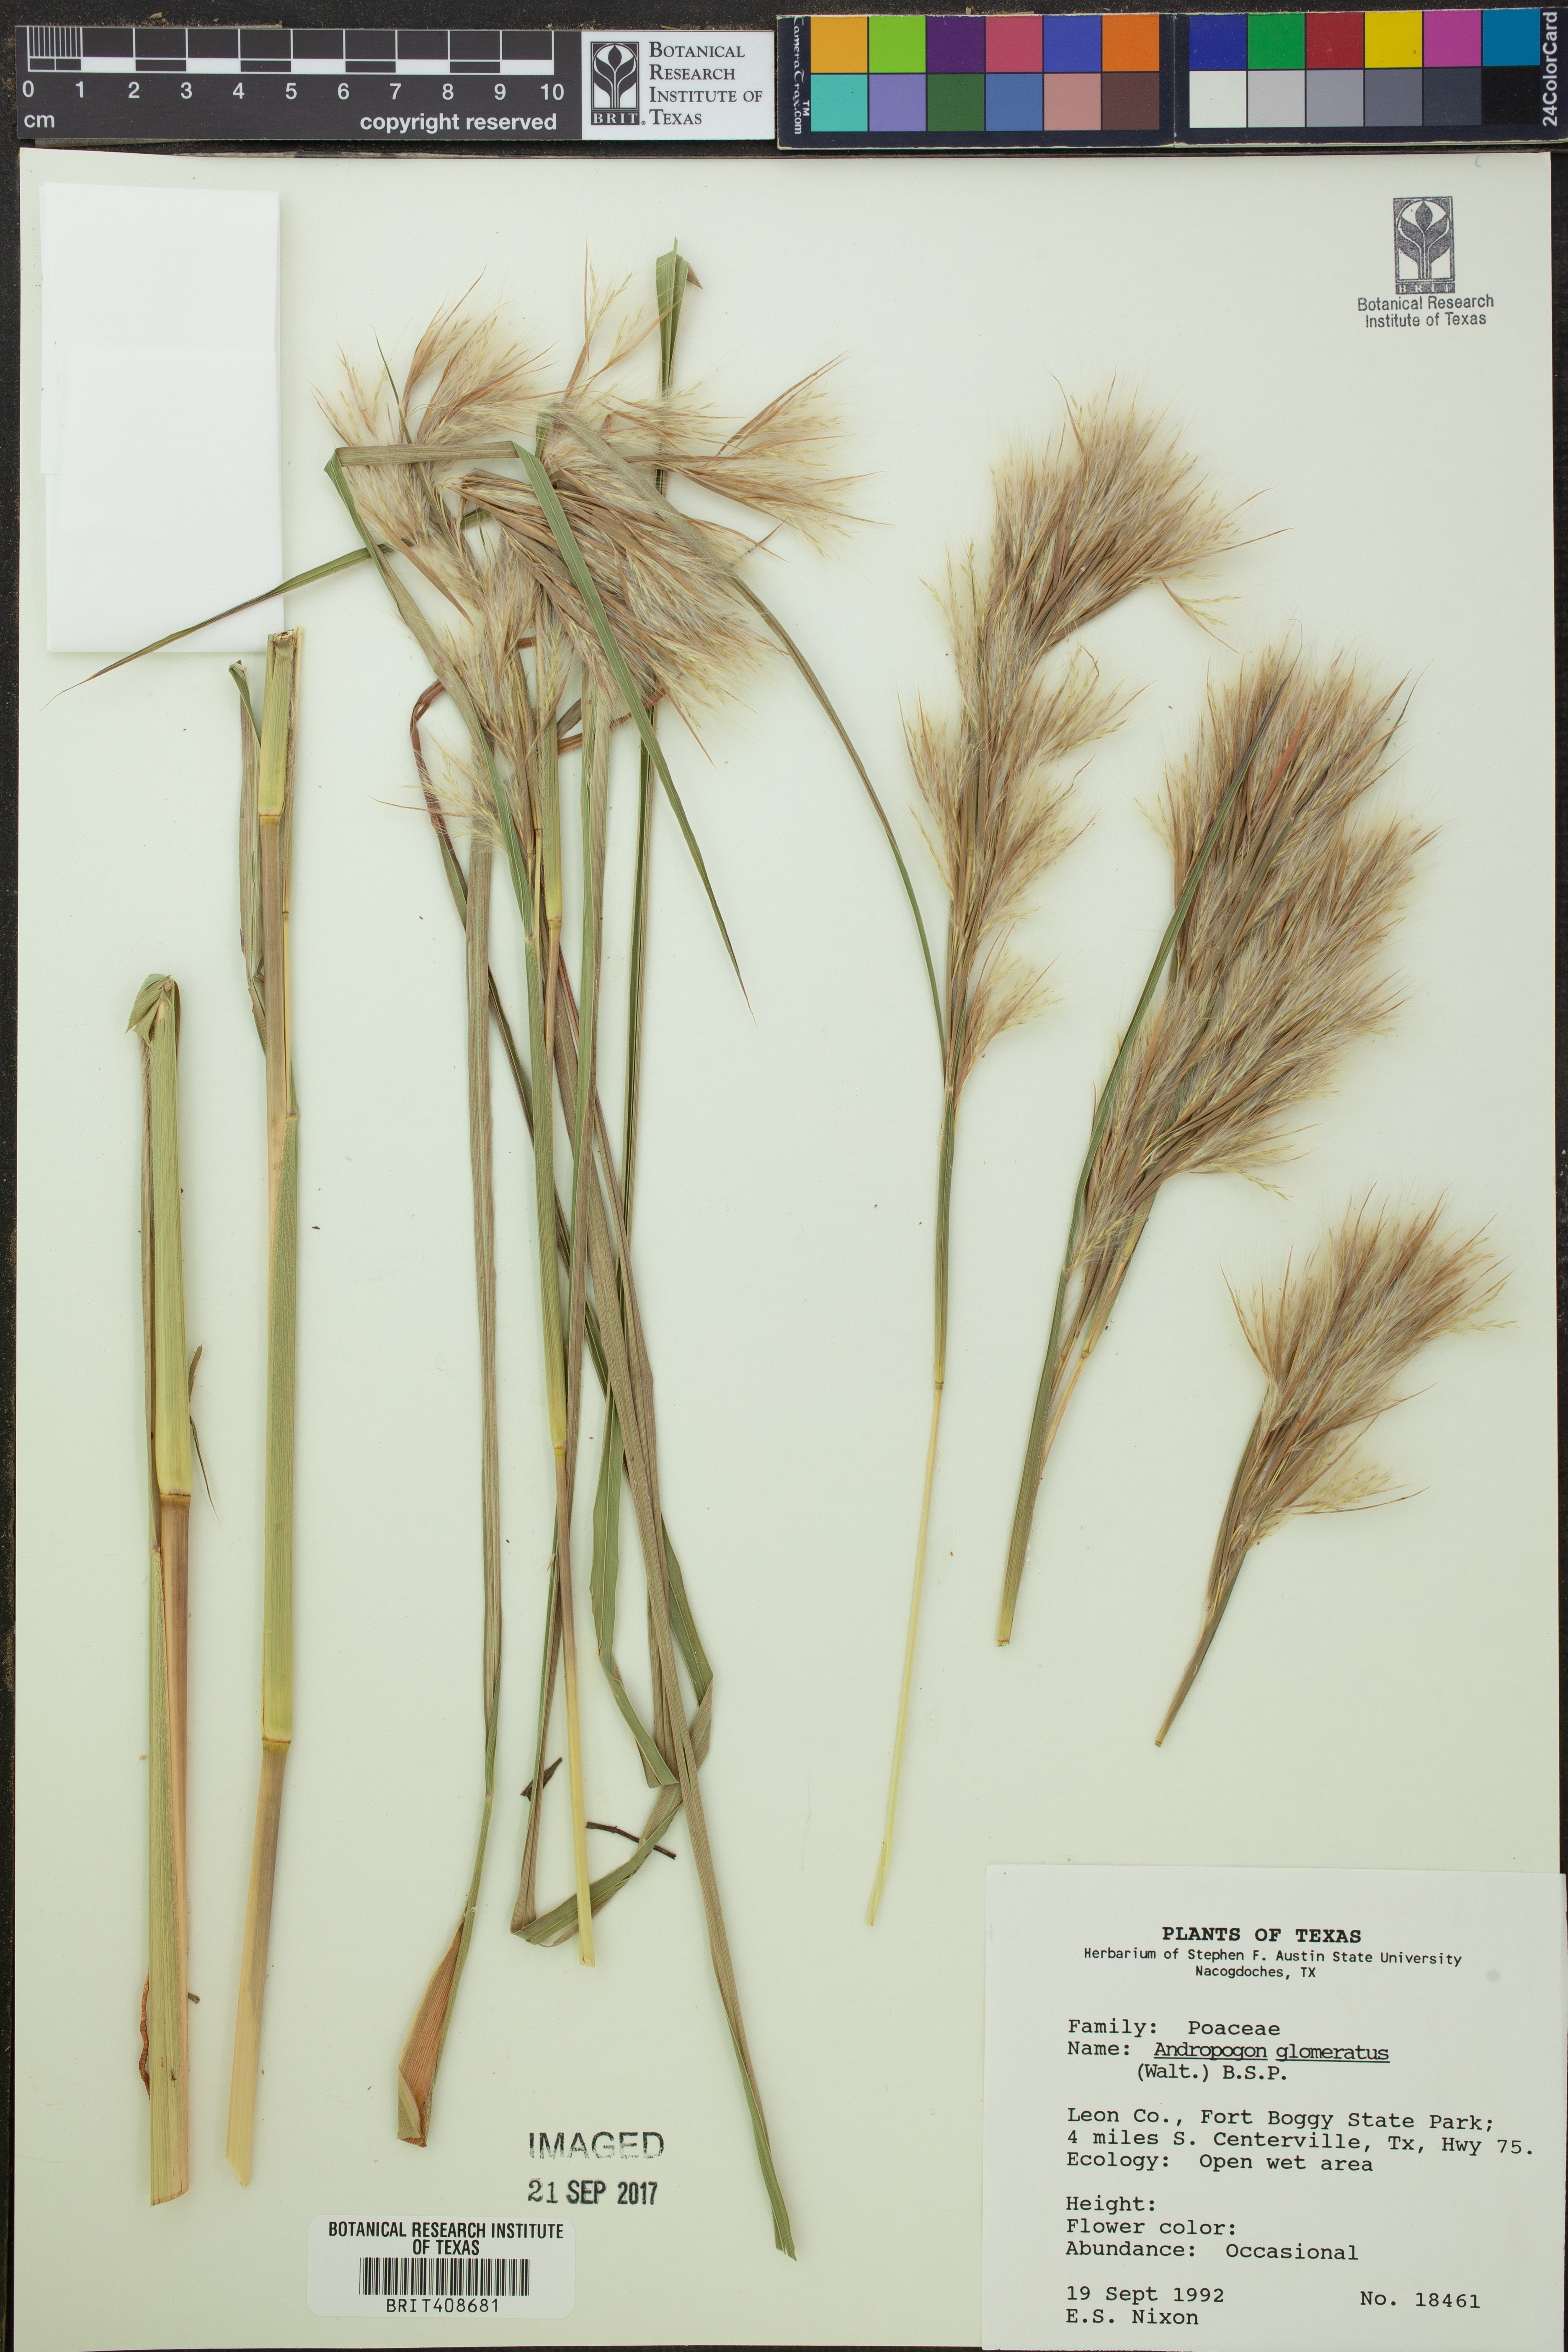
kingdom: Plantae
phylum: Tracheophyta
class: Liliopsida
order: Poales
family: Poaceae
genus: Andropogon
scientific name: Andropogon glomeratus
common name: Bushy beard grass
